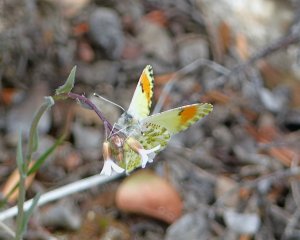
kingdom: Animalia
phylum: Arthropoda
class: Insecta
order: Lepidoptera
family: Pieridae
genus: Anthocharis
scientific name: Anthocharis sara
